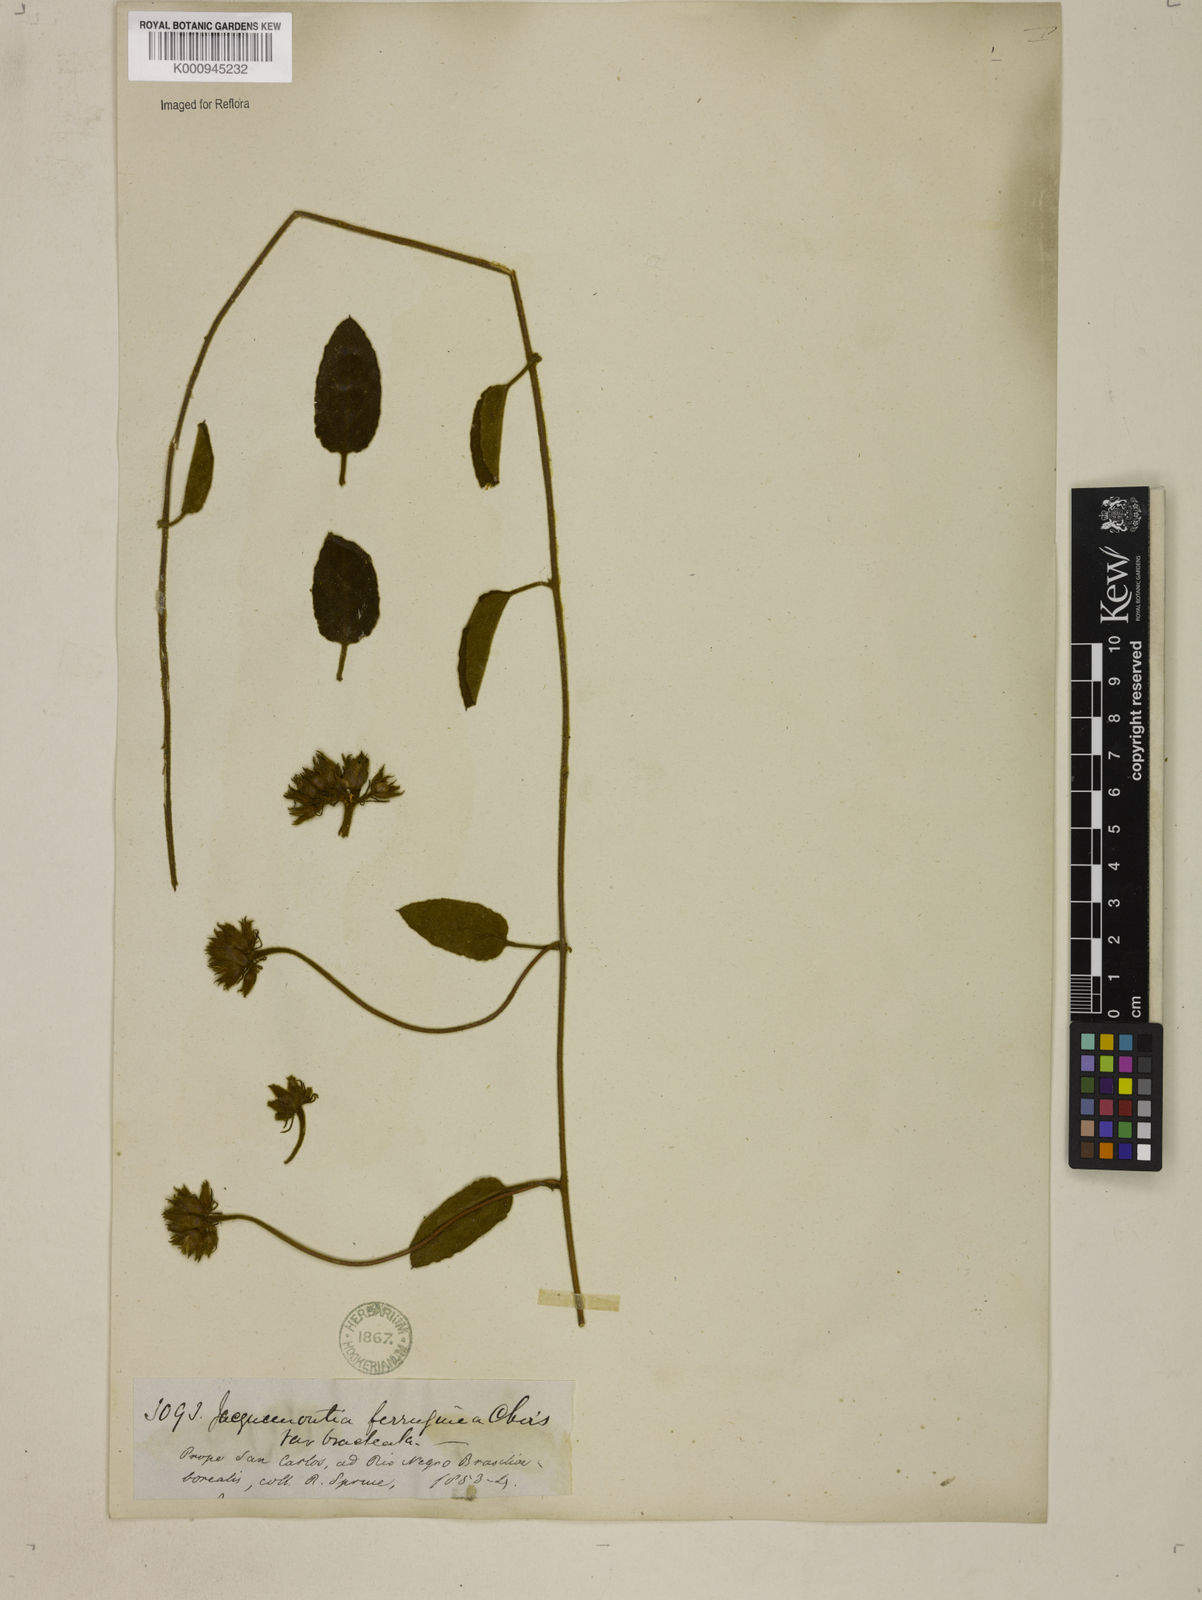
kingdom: Plantae
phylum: Tracheophyta
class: Magnoliopsida
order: Solanales
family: Convolvulaceae
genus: Jacquemontia
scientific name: Jacquemontia
